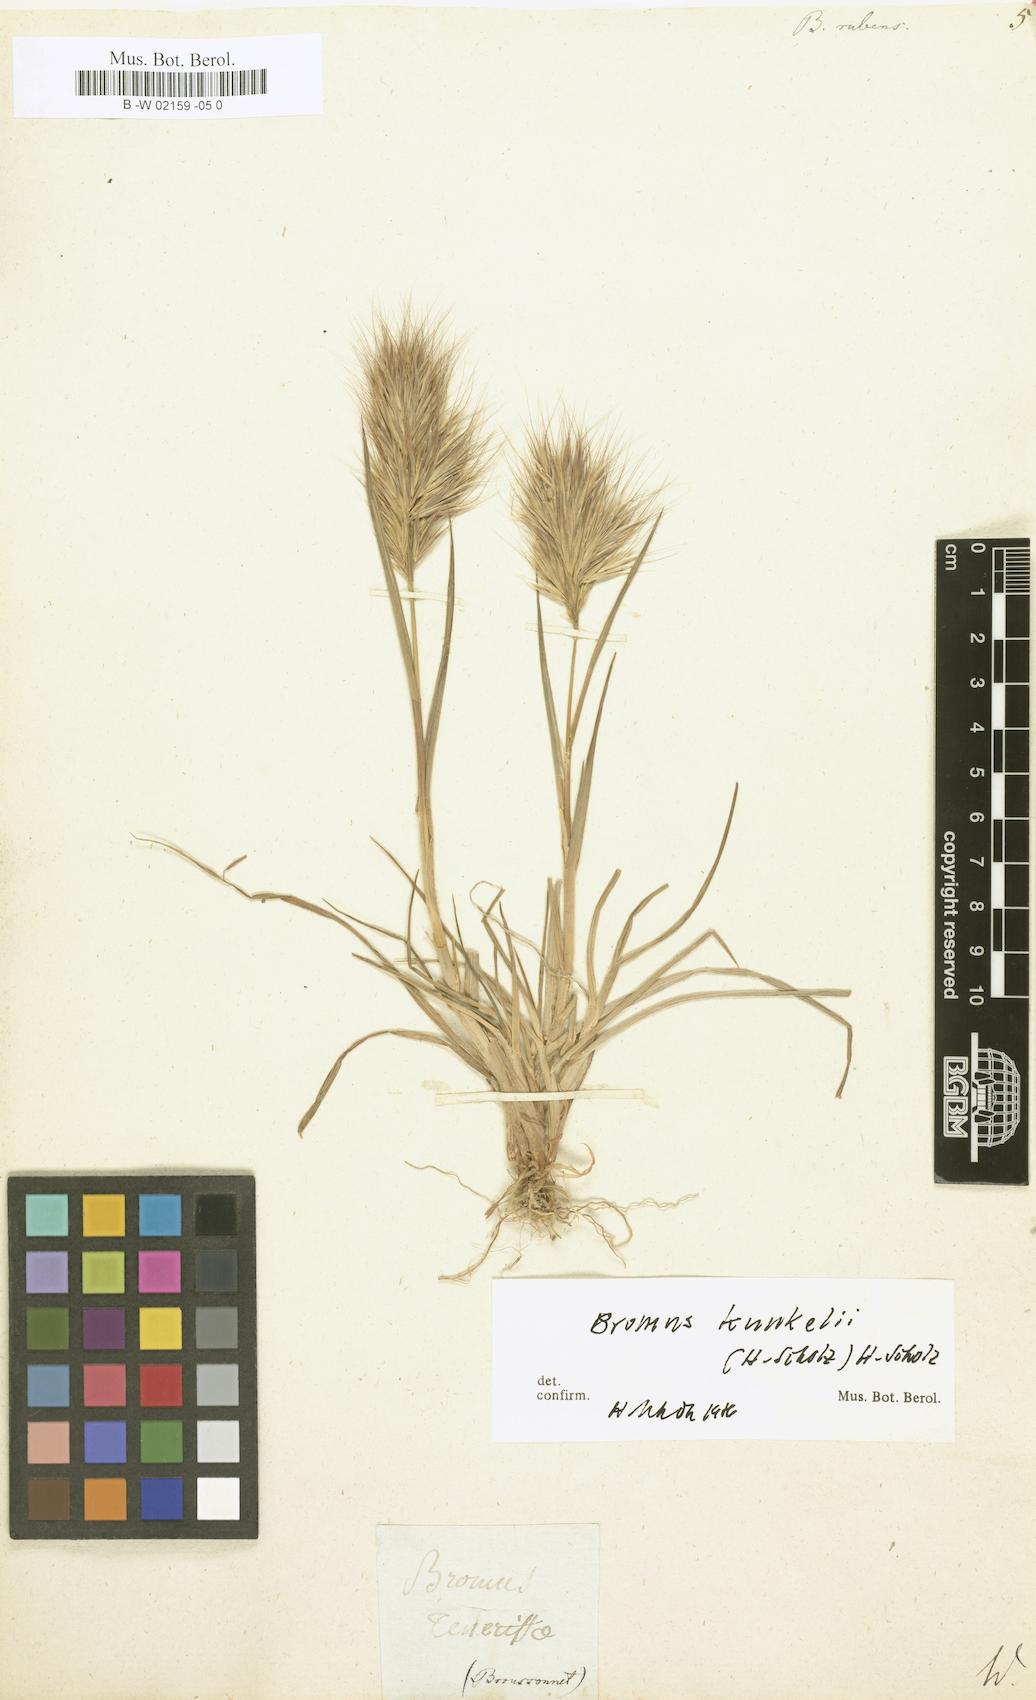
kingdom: Plantae
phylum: Tracheophyta
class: Liliopsida
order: Poales
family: Poaceae
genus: Bromus
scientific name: Bromus rubens
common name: Red brome
